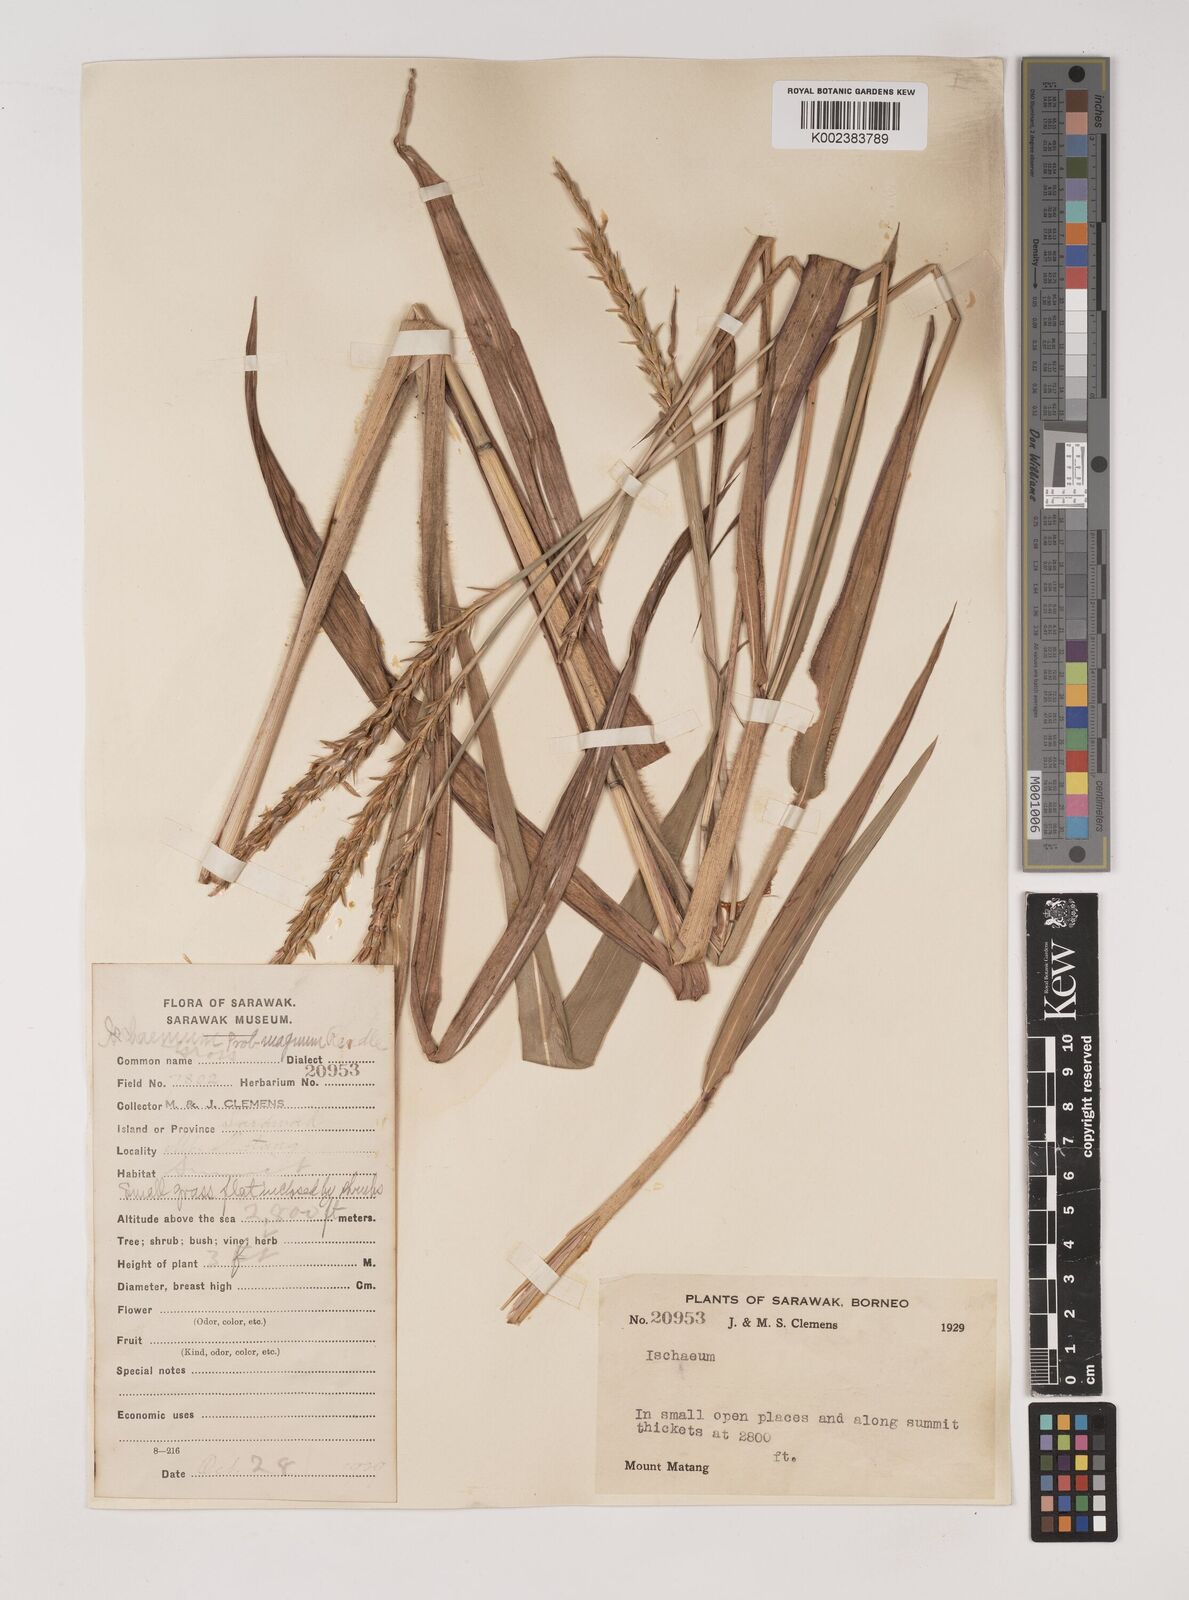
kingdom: Plantae
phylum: Tracheophyta
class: Liliopsida
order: Poales
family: Poaceae
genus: Ischaemum
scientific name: Ischaemum barbatum
